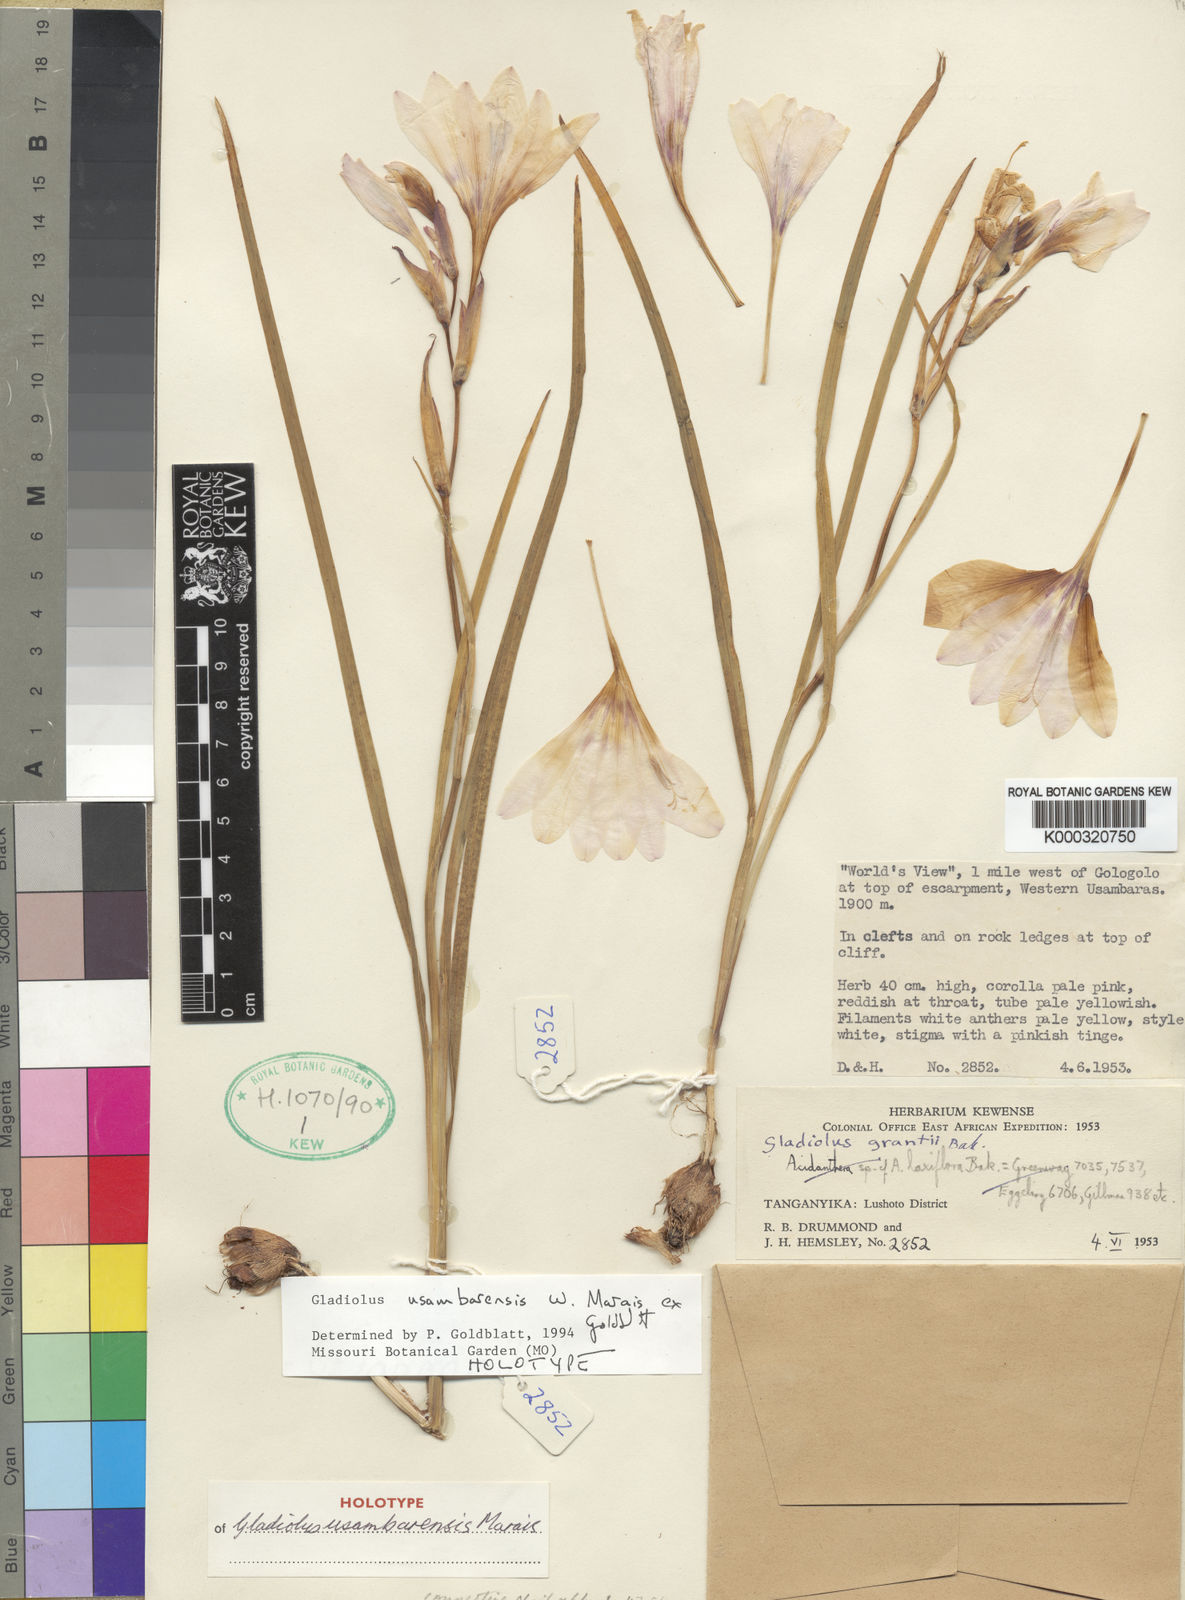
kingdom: Plantae
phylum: Tracheophyta
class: Liliopsida
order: Asparagales
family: Iridaceae
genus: Gladiolus
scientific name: Gladiolus usambarensis
